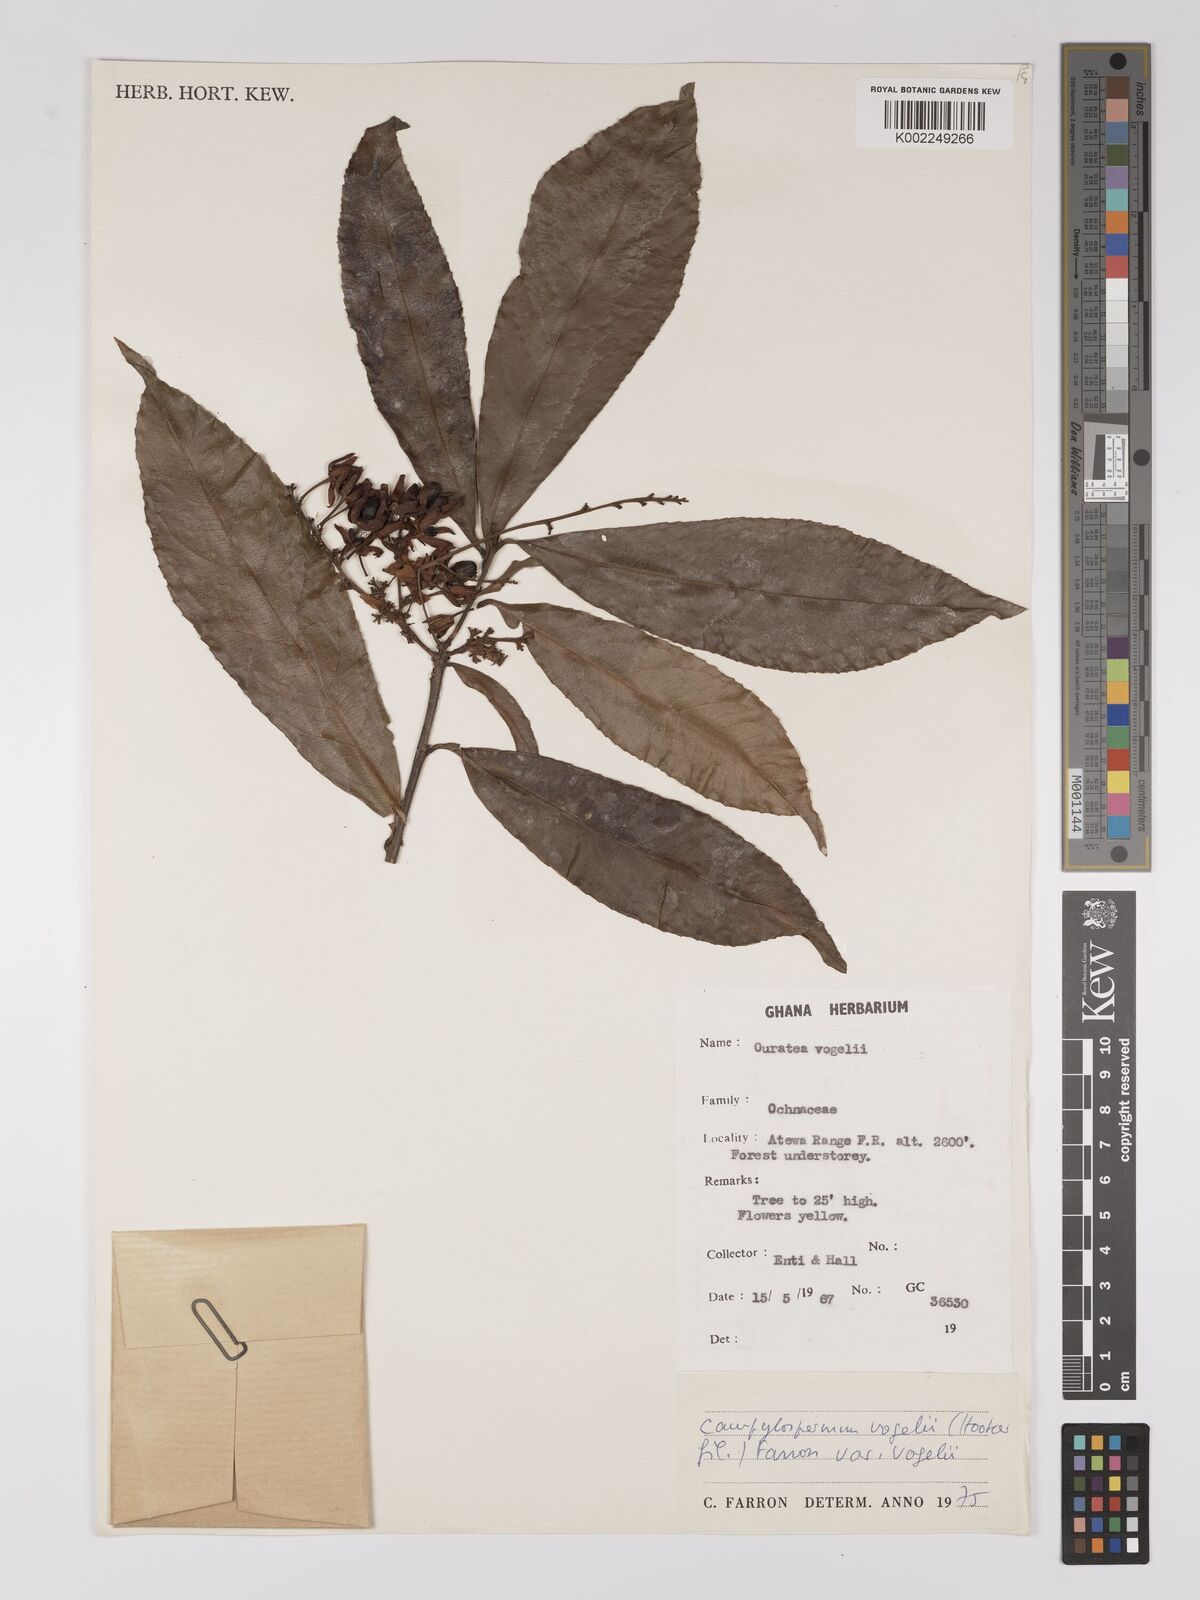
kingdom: Plantae
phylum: Tracheophyta
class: Magnoliopsida
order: Malpighiales
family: Ochnaceae
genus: Campylospermum
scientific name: Campylospermum vogelii
